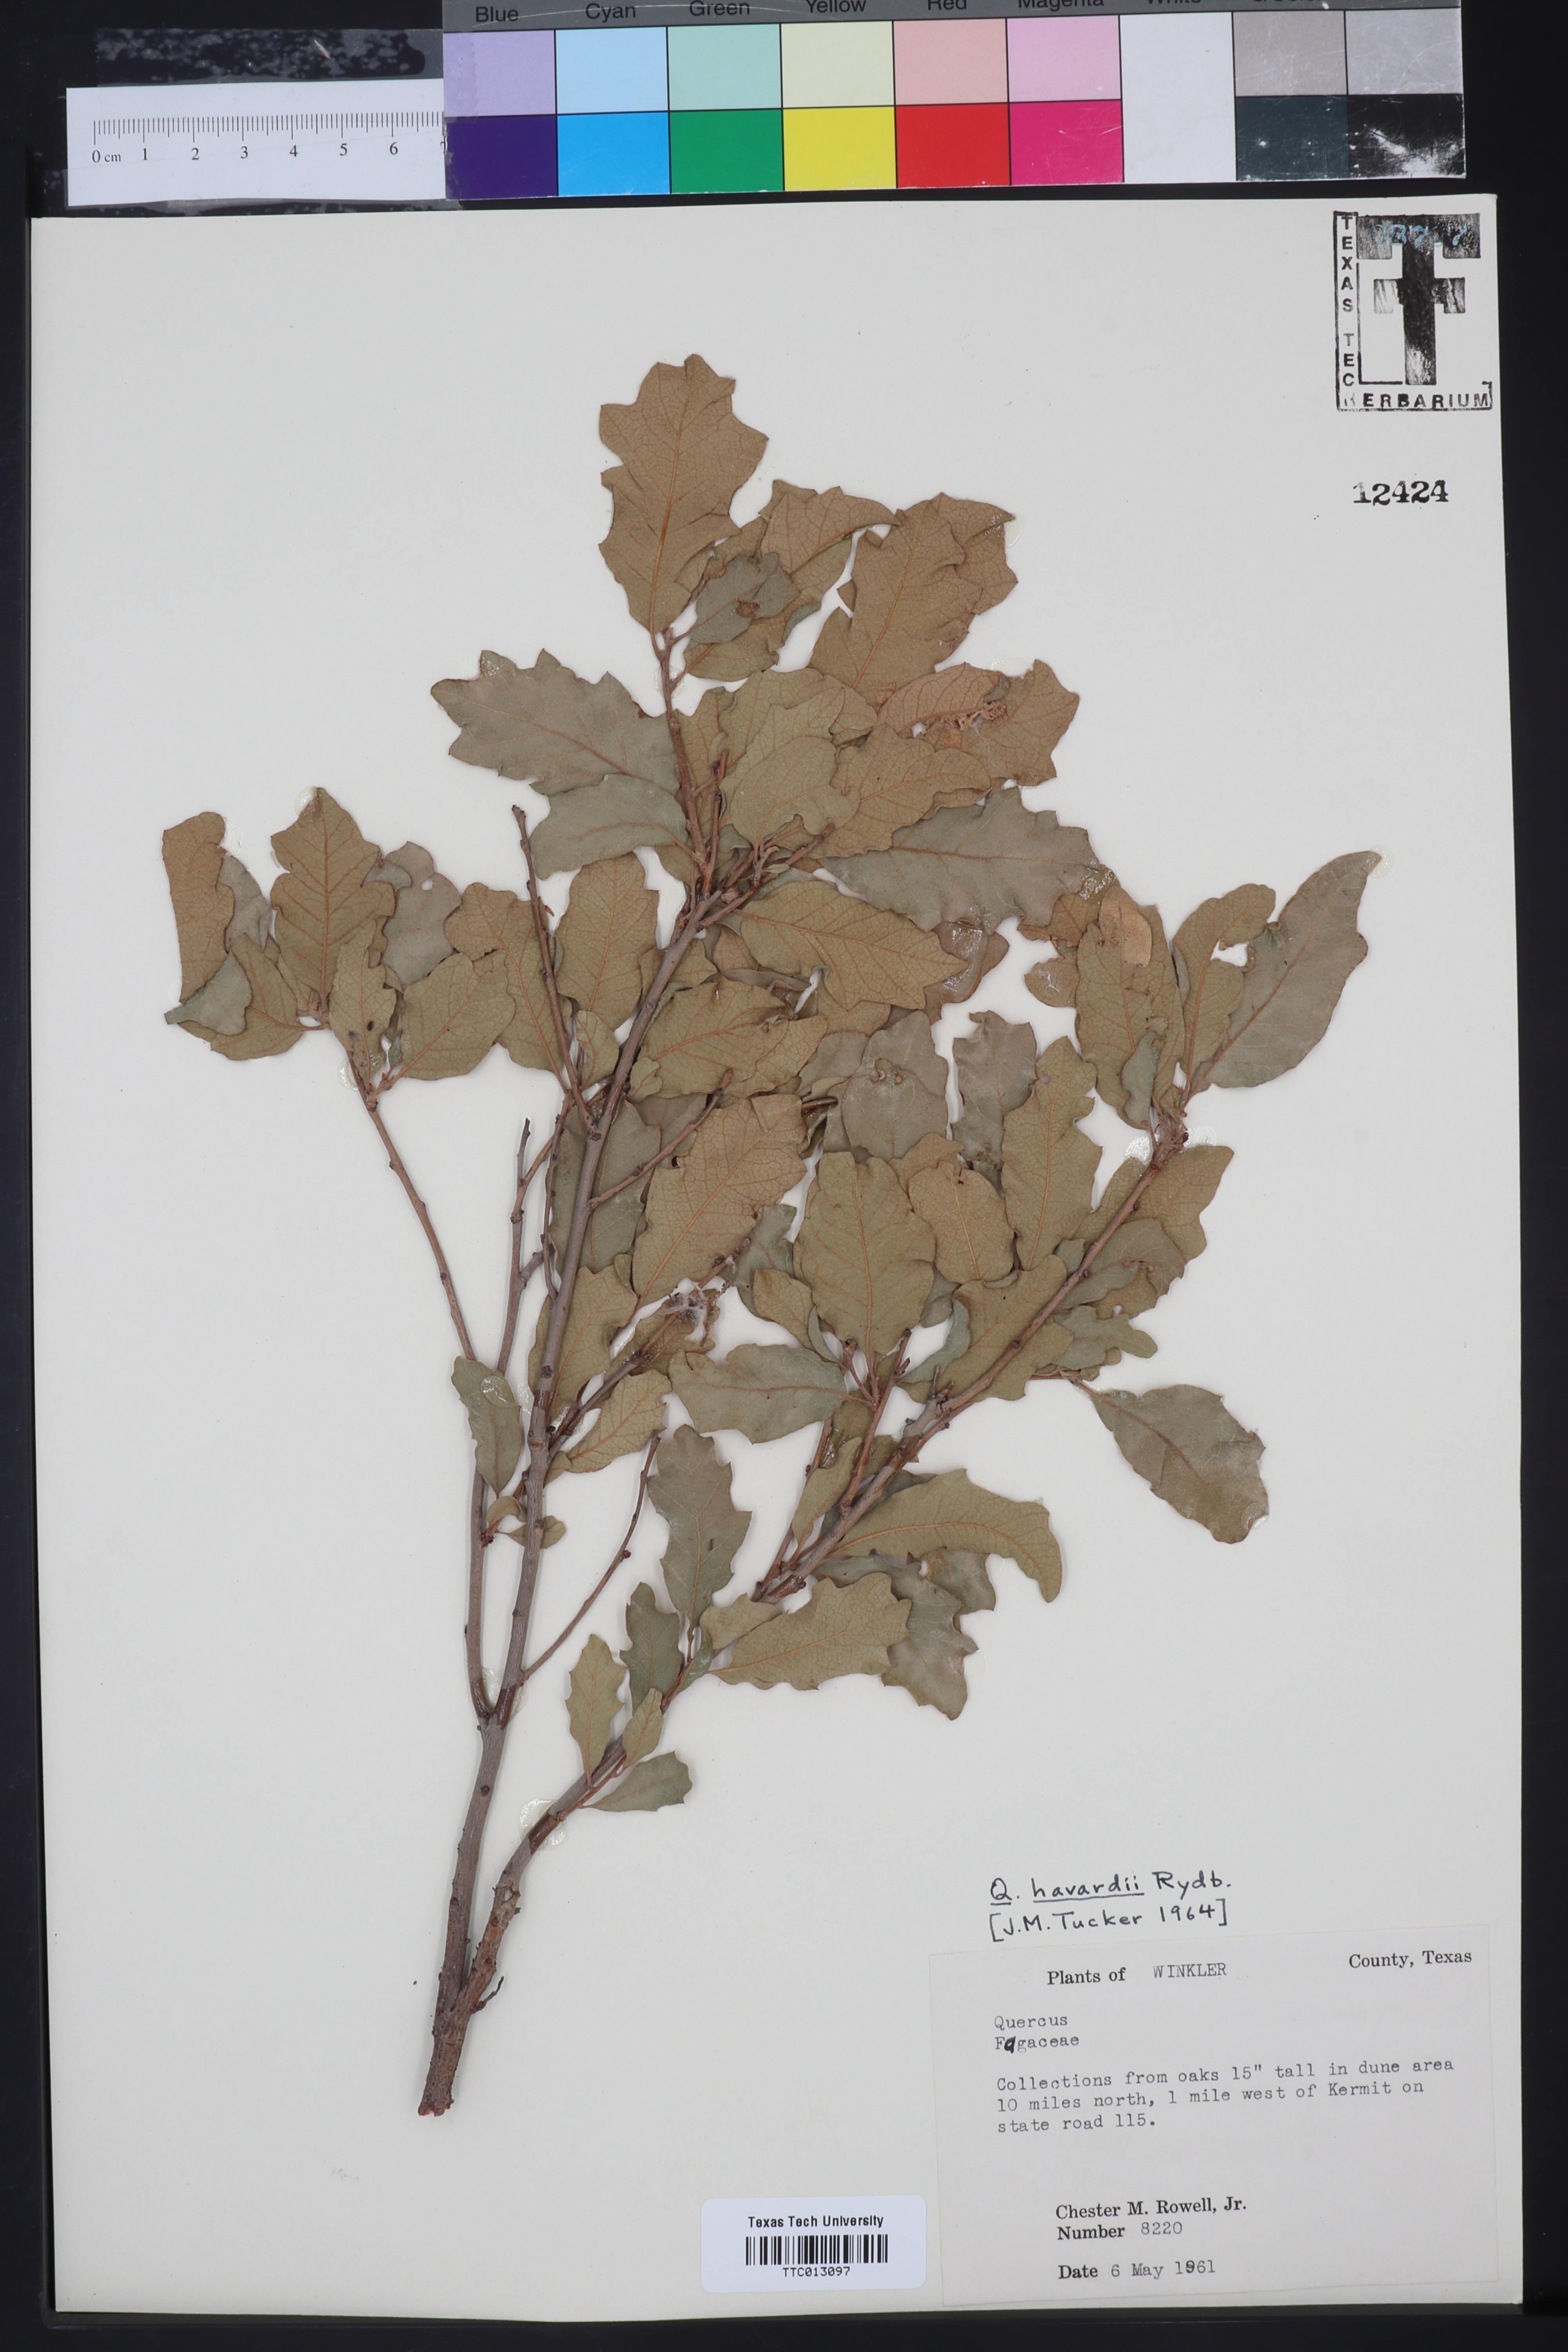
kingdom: Plantae
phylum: Tracheophyta
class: Magnoliopsida
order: Fagales
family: Fagaceae
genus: Quercus
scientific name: Quercus havardii
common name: Shinnery oak
